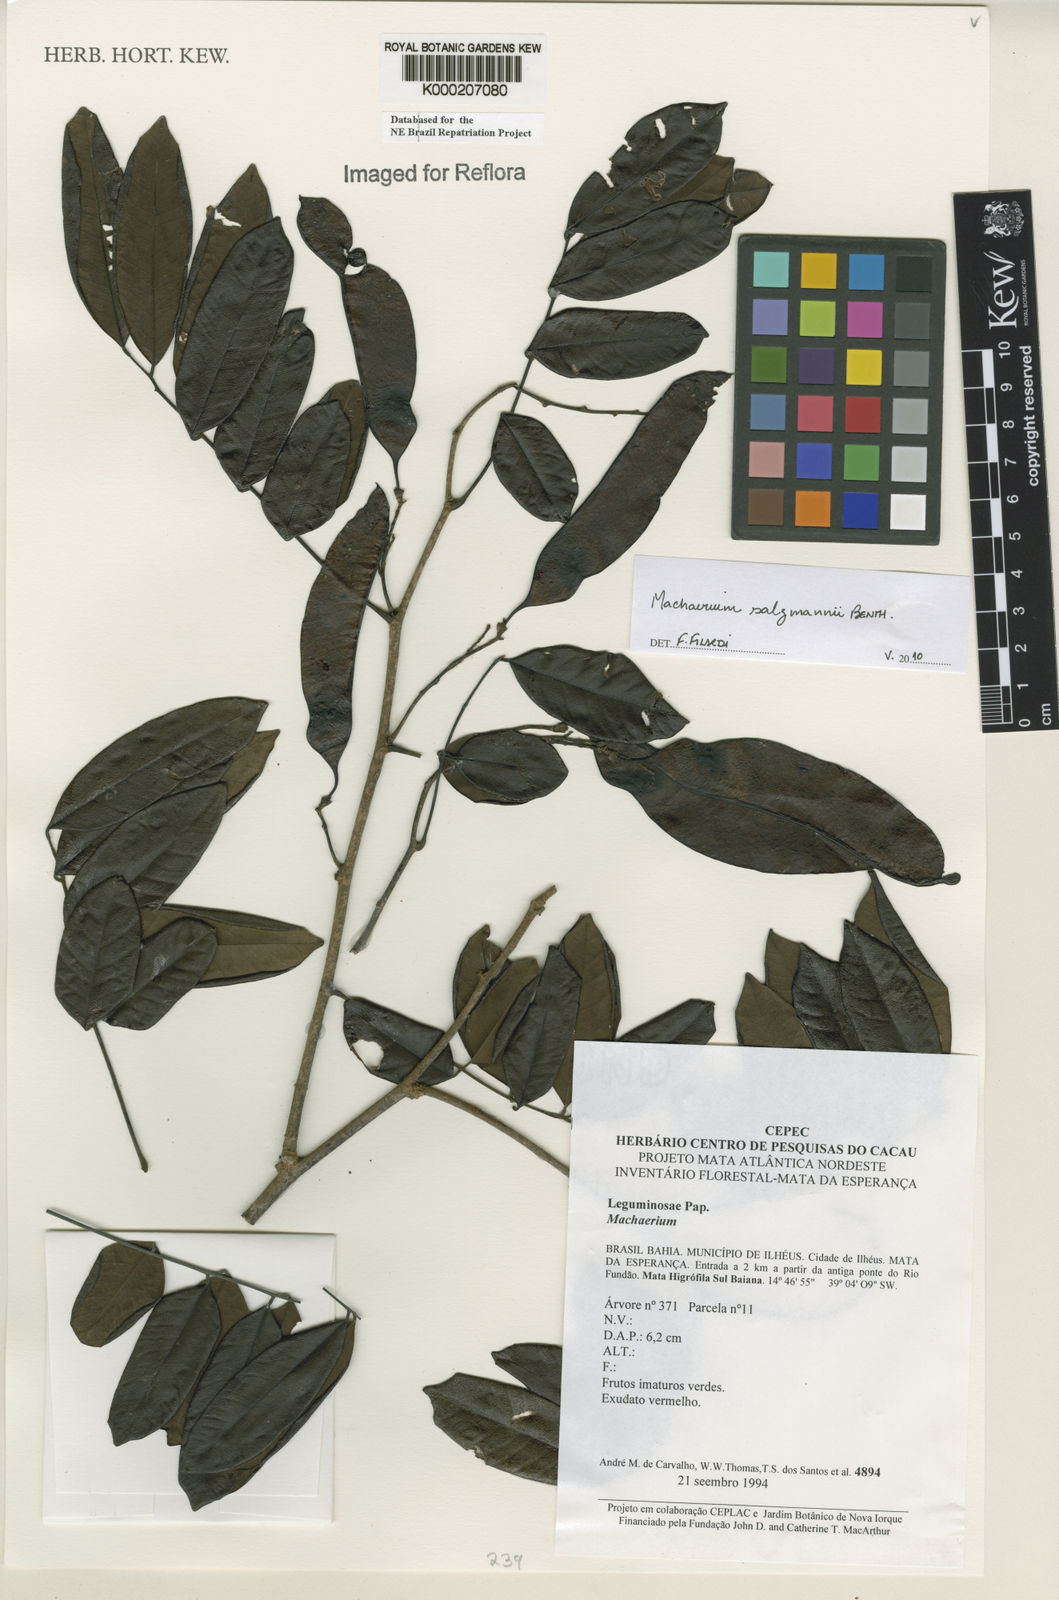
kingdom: Plantae
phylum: Tracheophyta
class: Magnoliopsida
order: Fabales
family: Fabaceae
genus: Machaerium
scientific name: Machaerium
